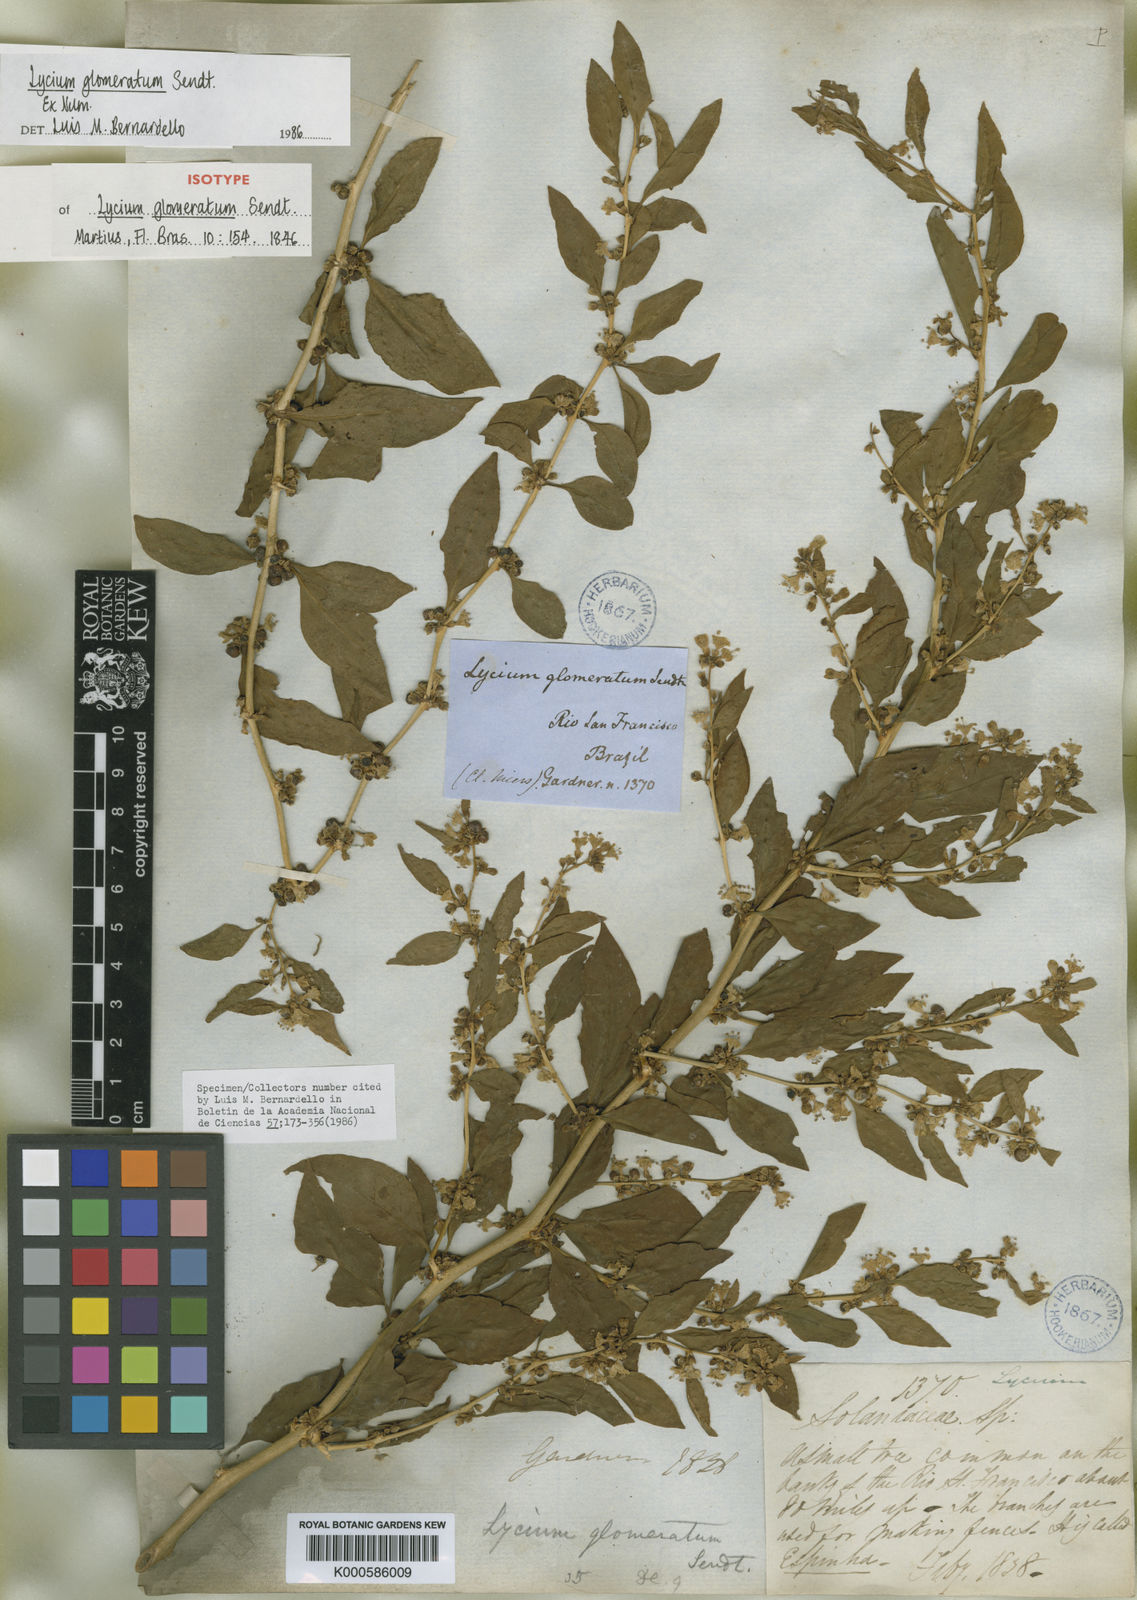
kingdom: Plantae
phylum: Tracheophyta
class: Magnoliopsida
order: Solanales
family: Solanaceae
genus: Lycium
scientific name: Lycium glomeratum
